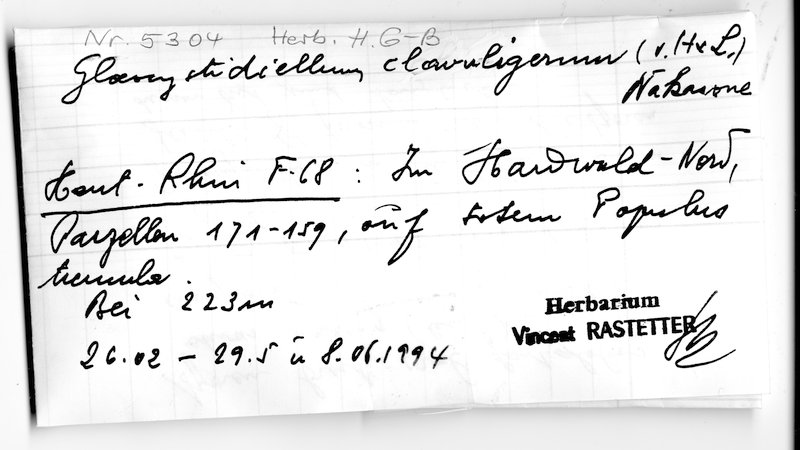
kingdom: Fungi
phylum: Basidiomycota
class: Agaricomycetes
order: Russulales
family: Stereaceae
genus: Gloeocystidiellum
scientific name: Gloeocystidiellum clavuligerum
